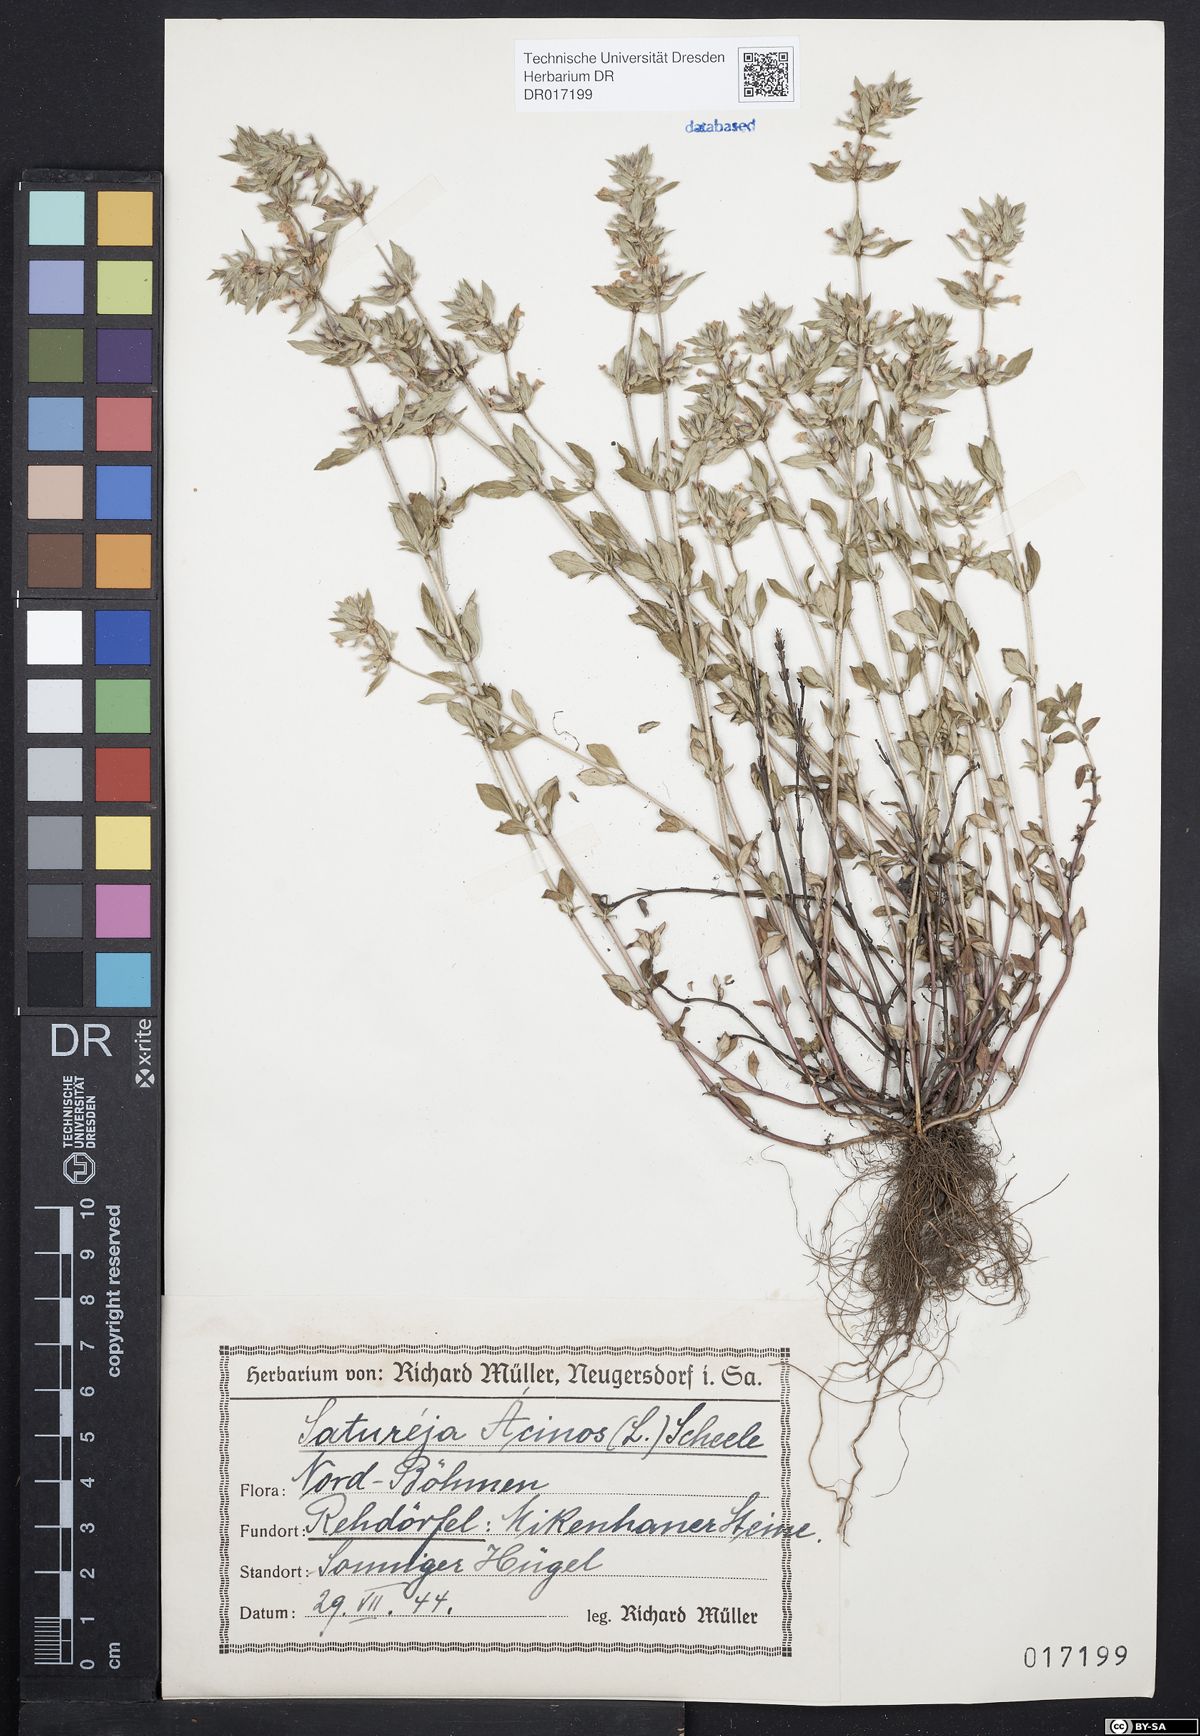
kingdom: Plantae
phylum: Tracheophyta
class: Magnoliopsida
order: Lamiales
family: Lamiaceae
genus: Clinopodium
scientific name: Clinopodium acinos
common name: Basil thyme
